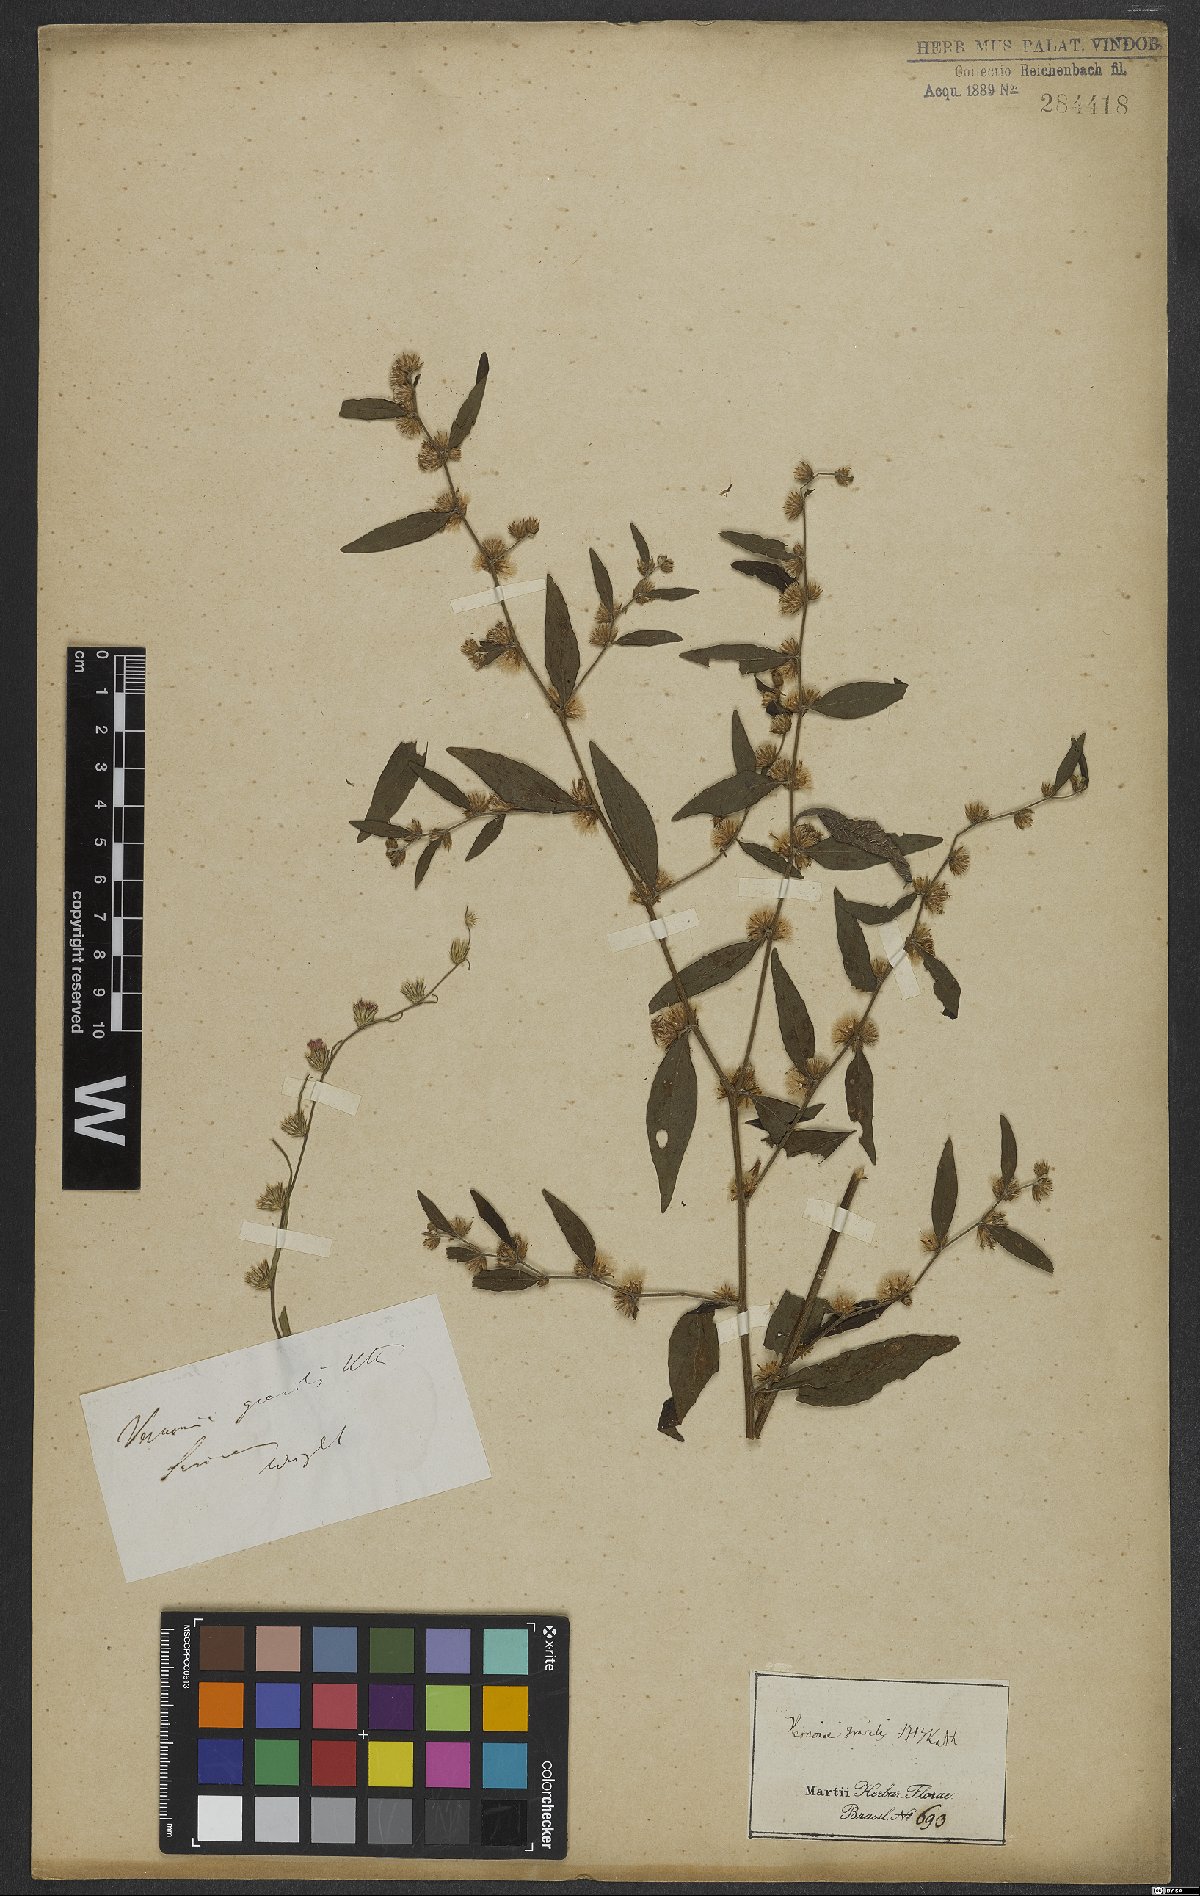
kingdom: Plantae
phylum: Tracheophyta
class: Magnoliopsida
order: Asterales
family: Asteraceae
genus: Lepidaploa
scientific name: Lepidaploa gracilis
